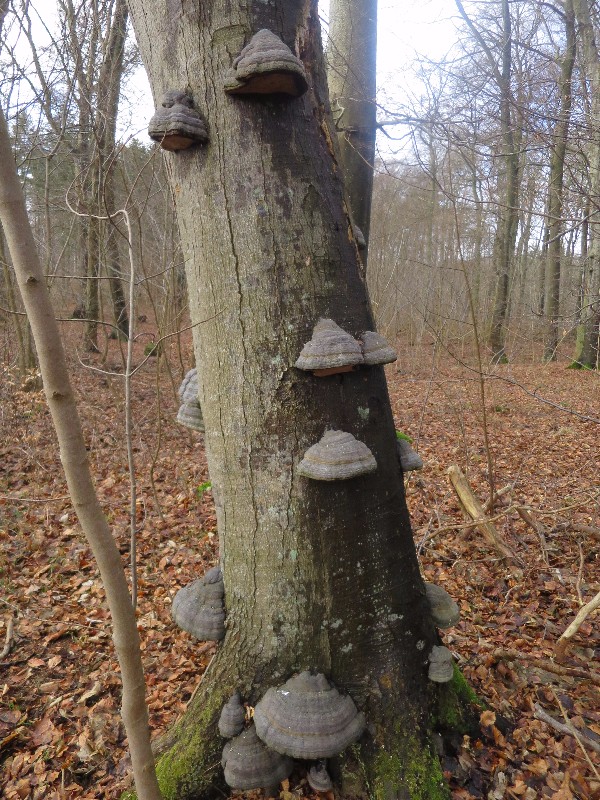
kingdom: Fungi
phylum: Basidiomycota
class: Agaricomycetes
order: Polyporales
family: Polyporaceae
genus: Fomes
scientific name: Fomes fomentarius
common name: tøndersvamp
